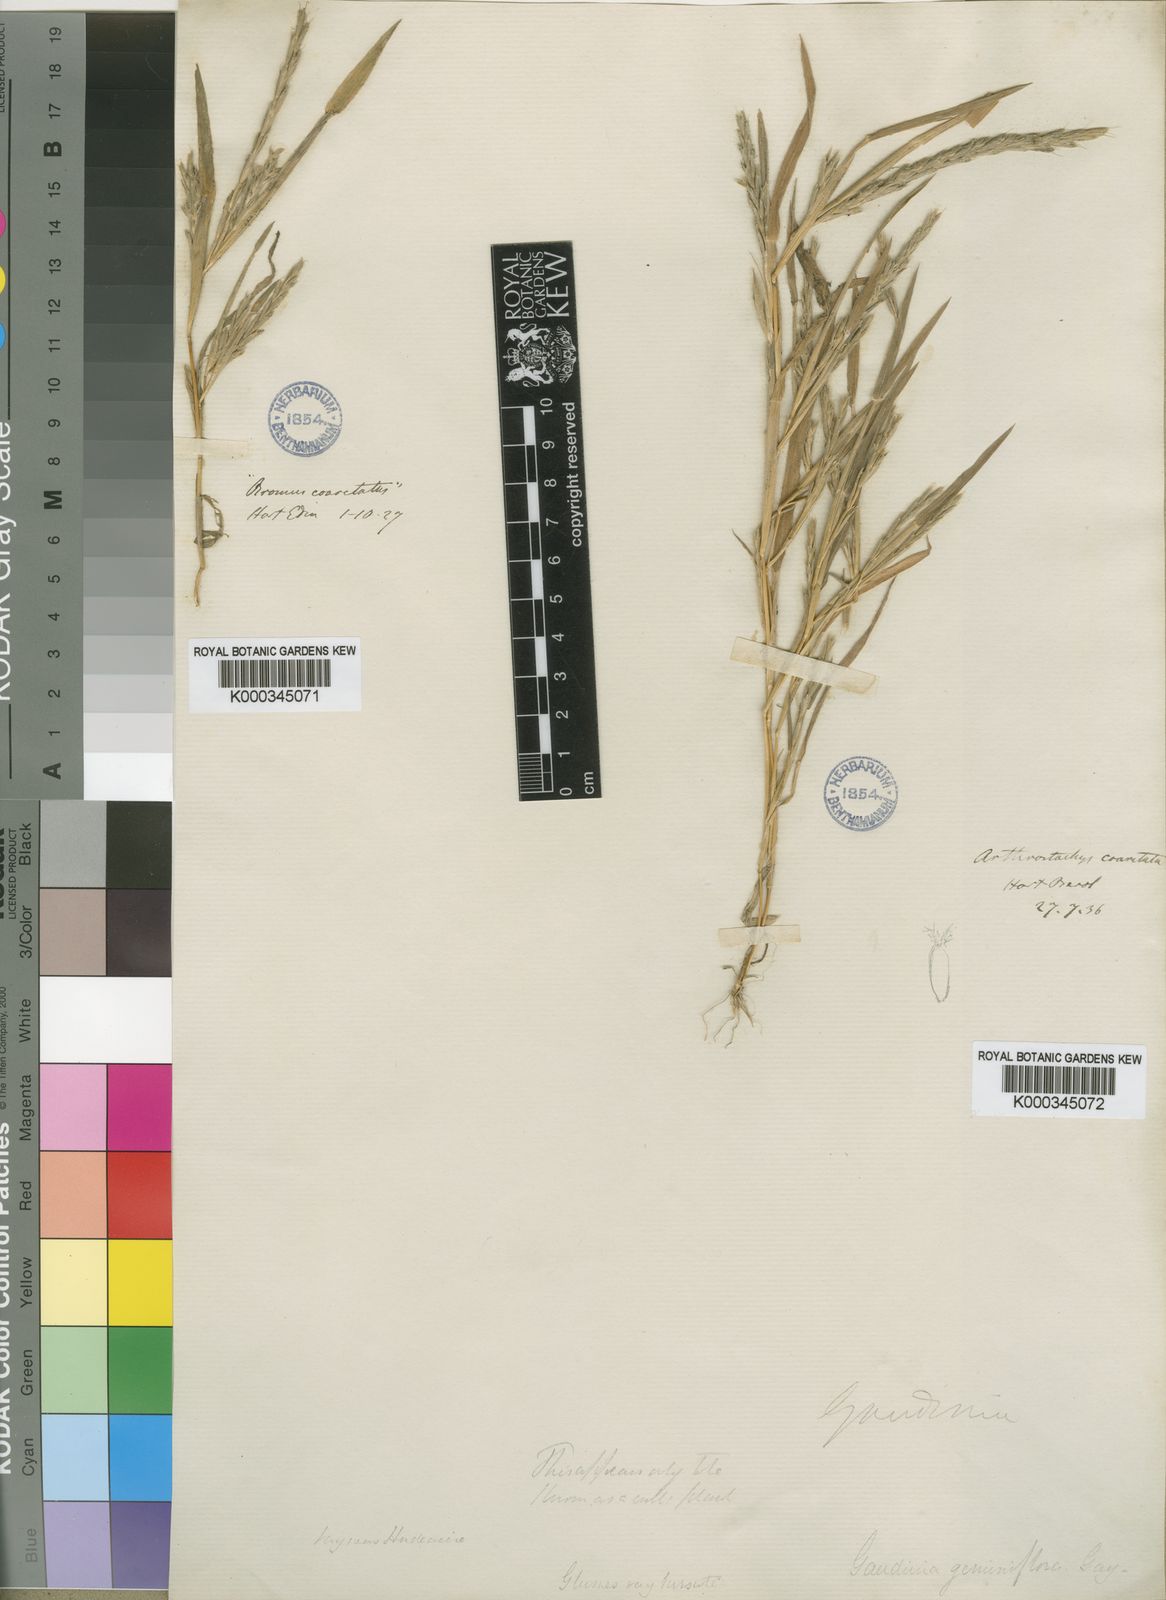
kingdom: Plantae
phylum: Tracheophyta
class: Liliopsida
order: Poales
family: Poaceae
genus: Gaudinia
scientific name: Gaudinia coarctata
